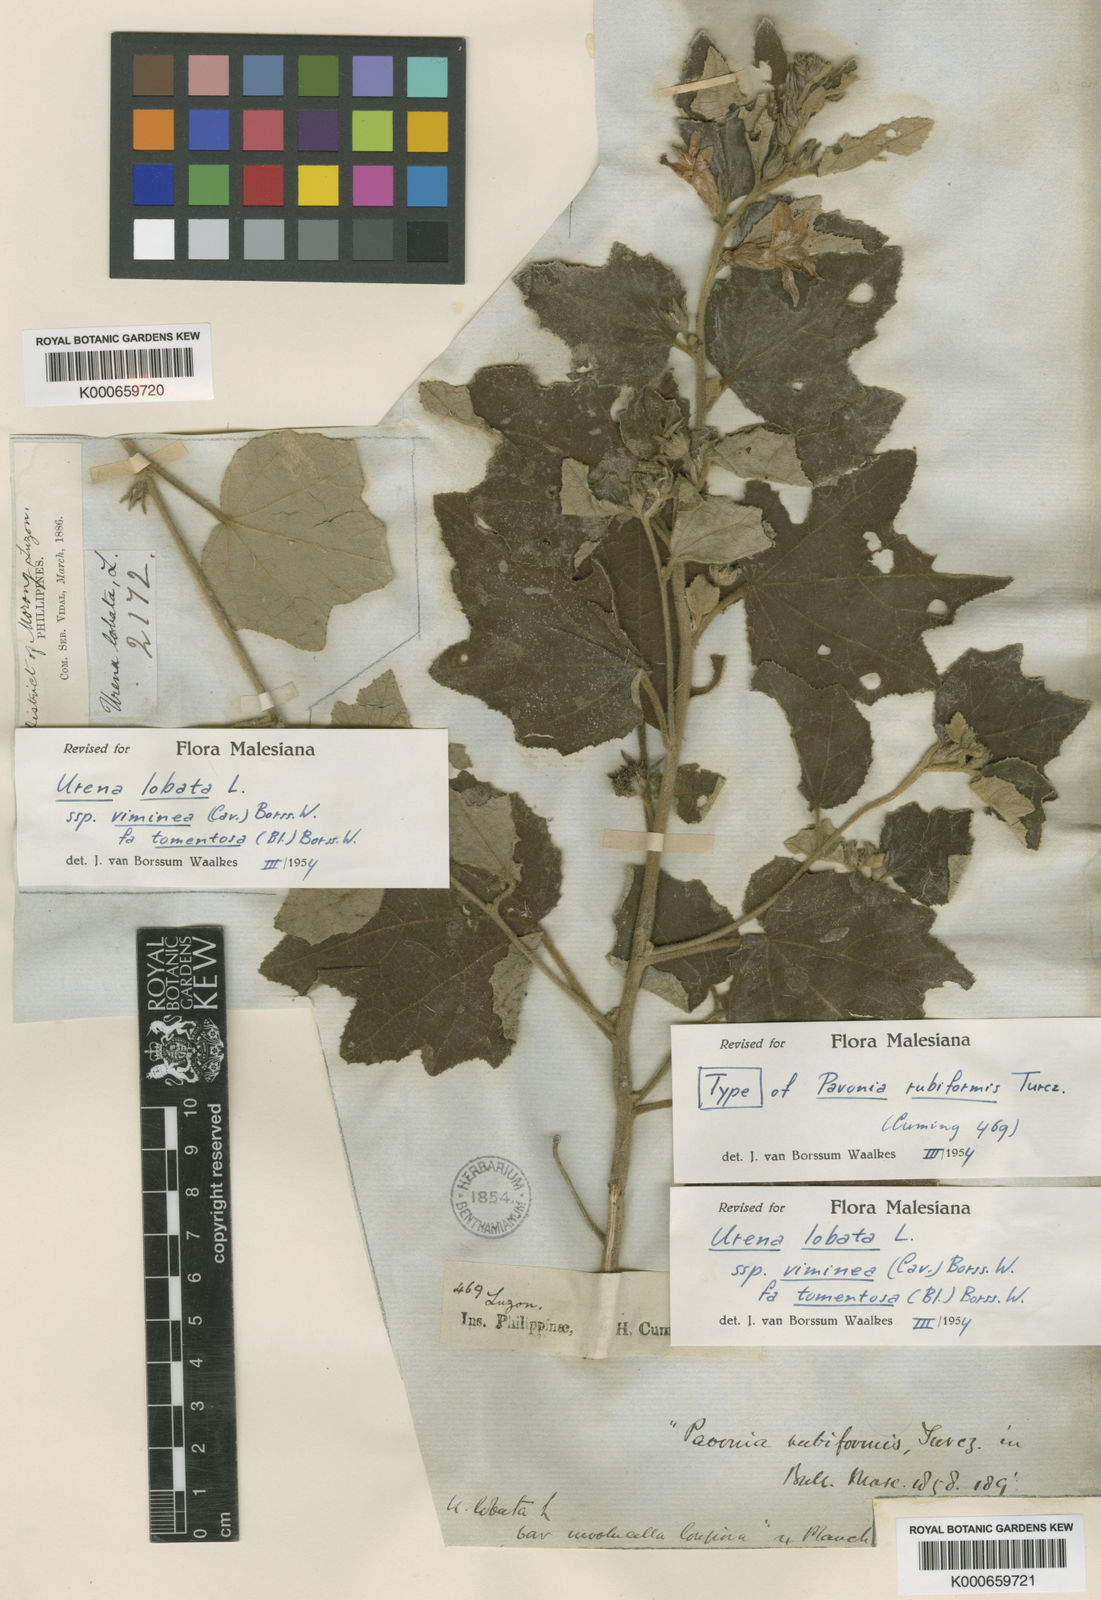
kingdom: Plantae
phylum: Tracheophyta
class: Magnoliopsida
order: Malvales
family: Malvaceae
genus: Urena
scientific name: Urena lobata
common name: Caesarweed
